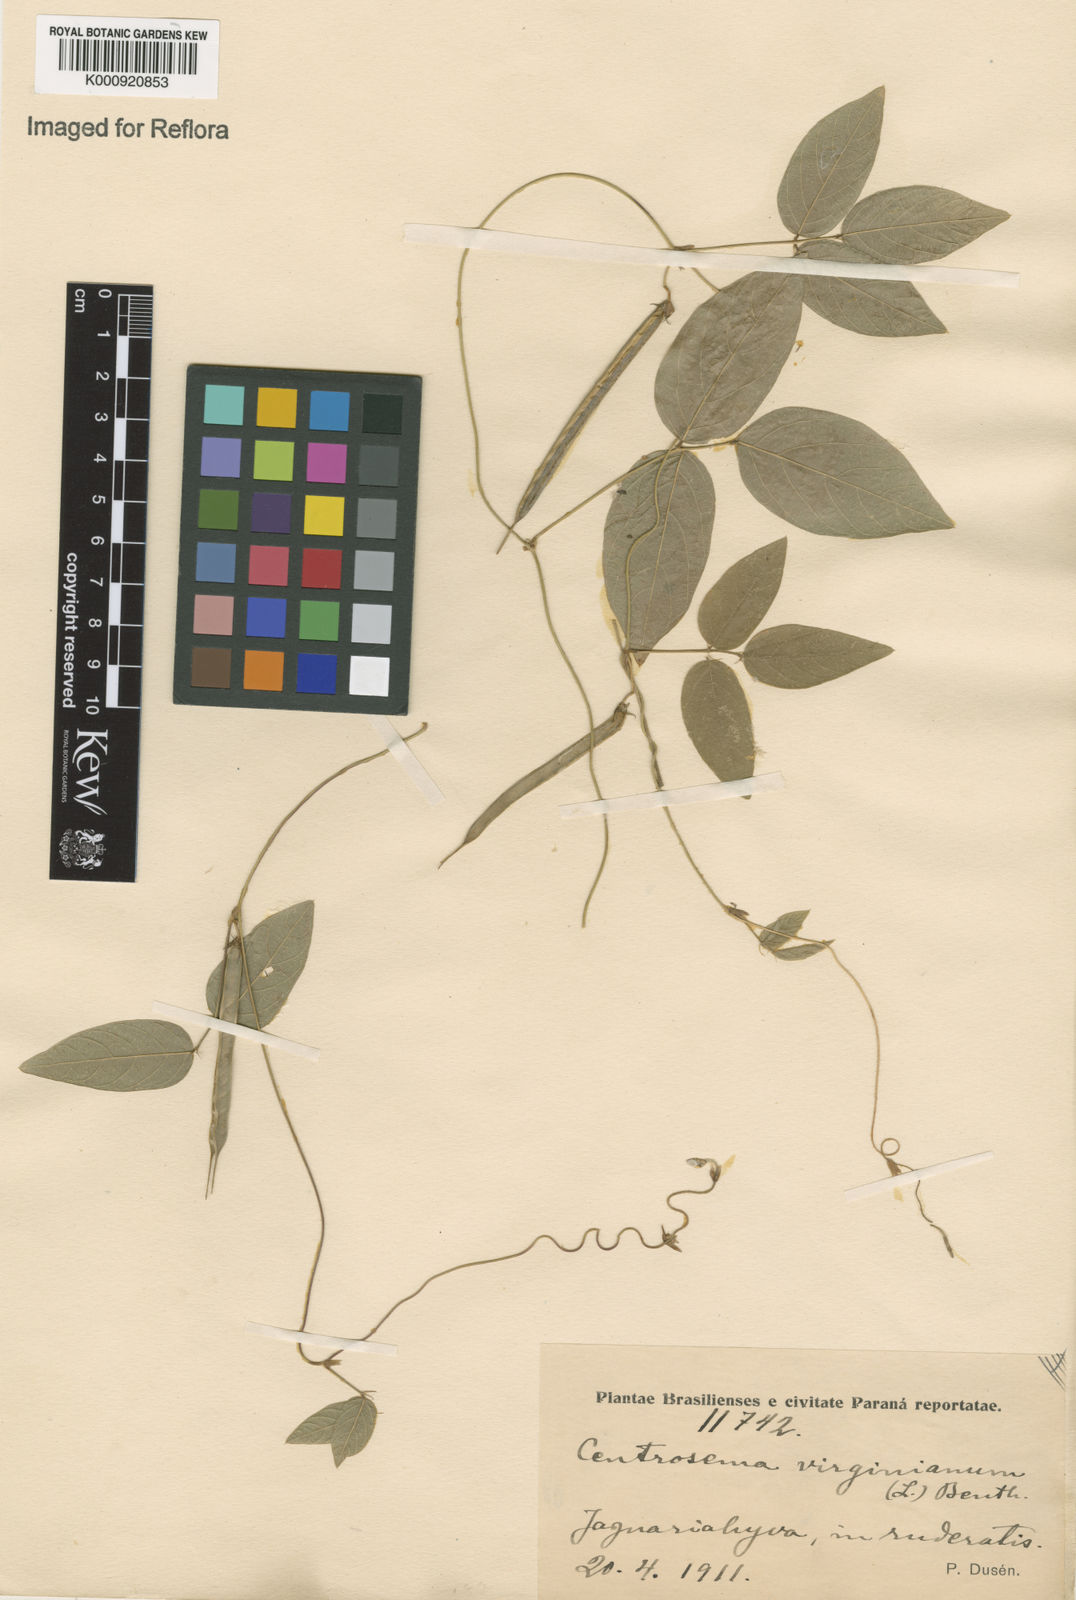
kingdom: Plantae
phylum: Tracheophyta
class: Magnoliopsida
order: Fabales
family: Fabaceae
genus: Centrosema
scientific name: Centrosema virginianum
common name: Butterfly-pea
